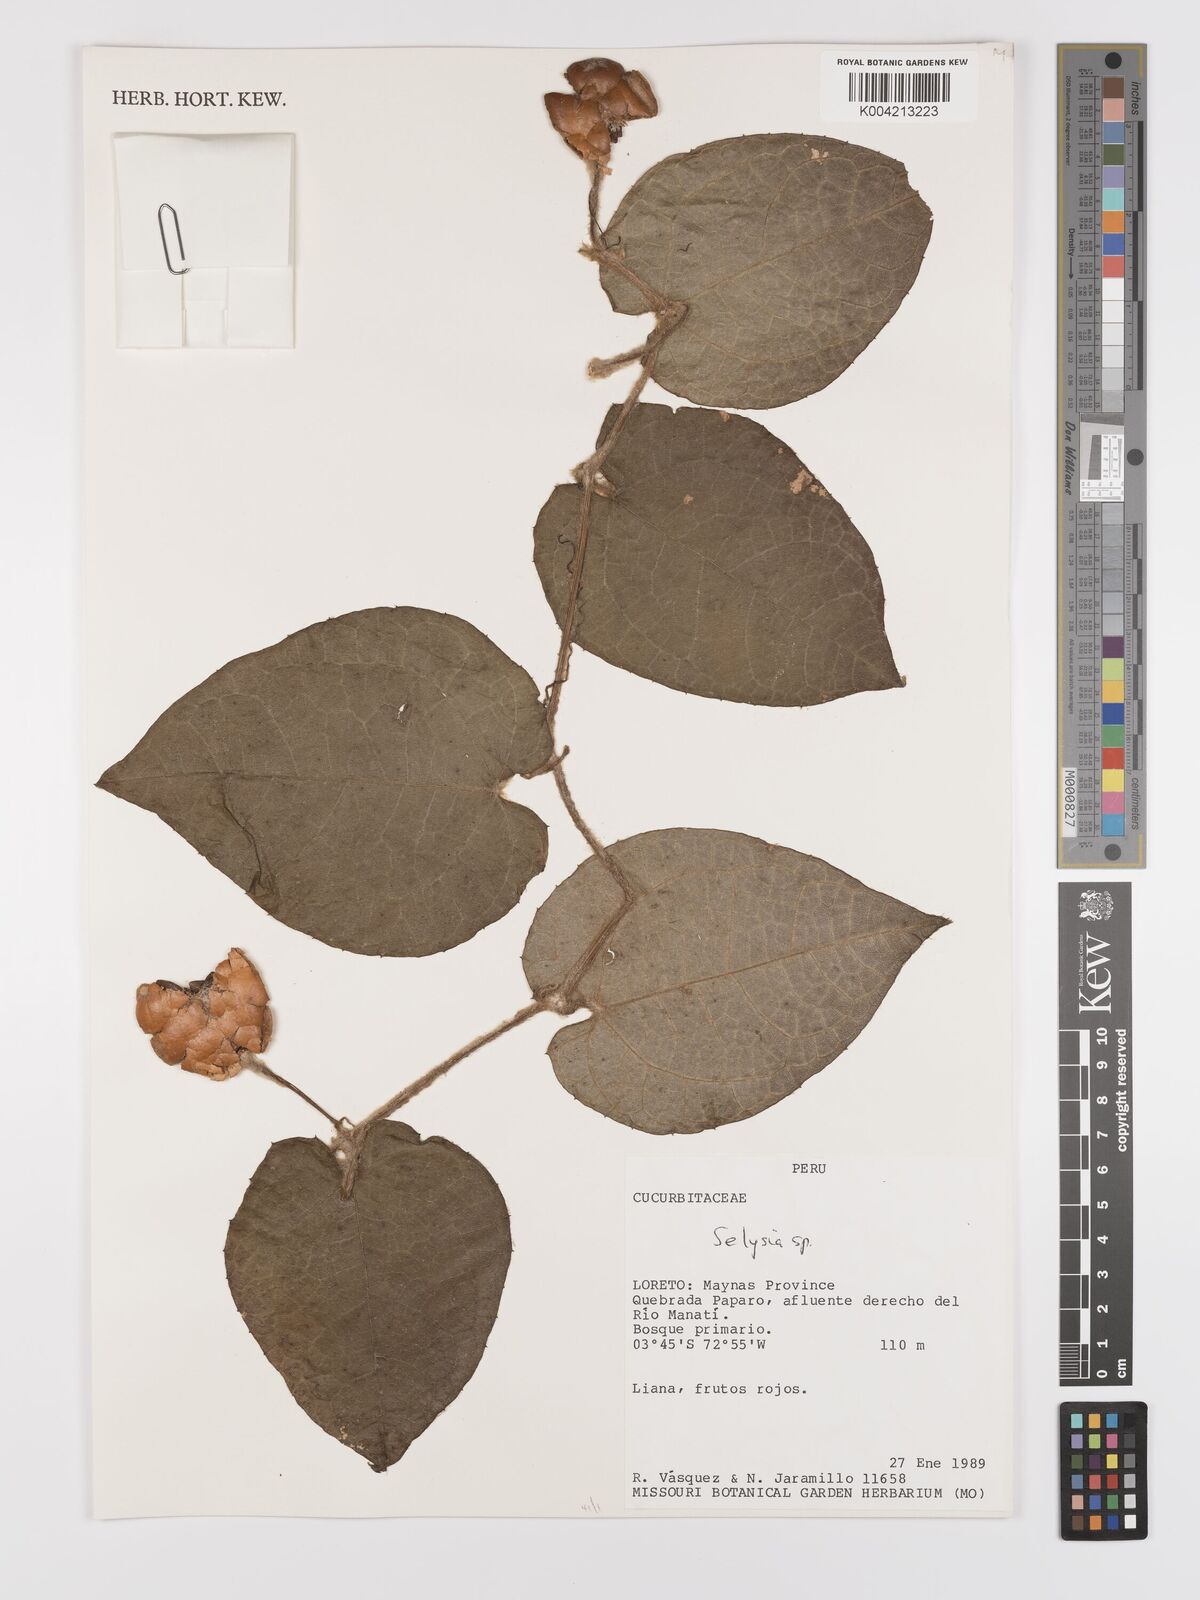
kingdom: Plantae
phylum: Tracheophyta
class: Magnoliopsida
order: Cucurbitales
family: Cucurbitaceae
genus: Selysia
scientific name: Selysia
